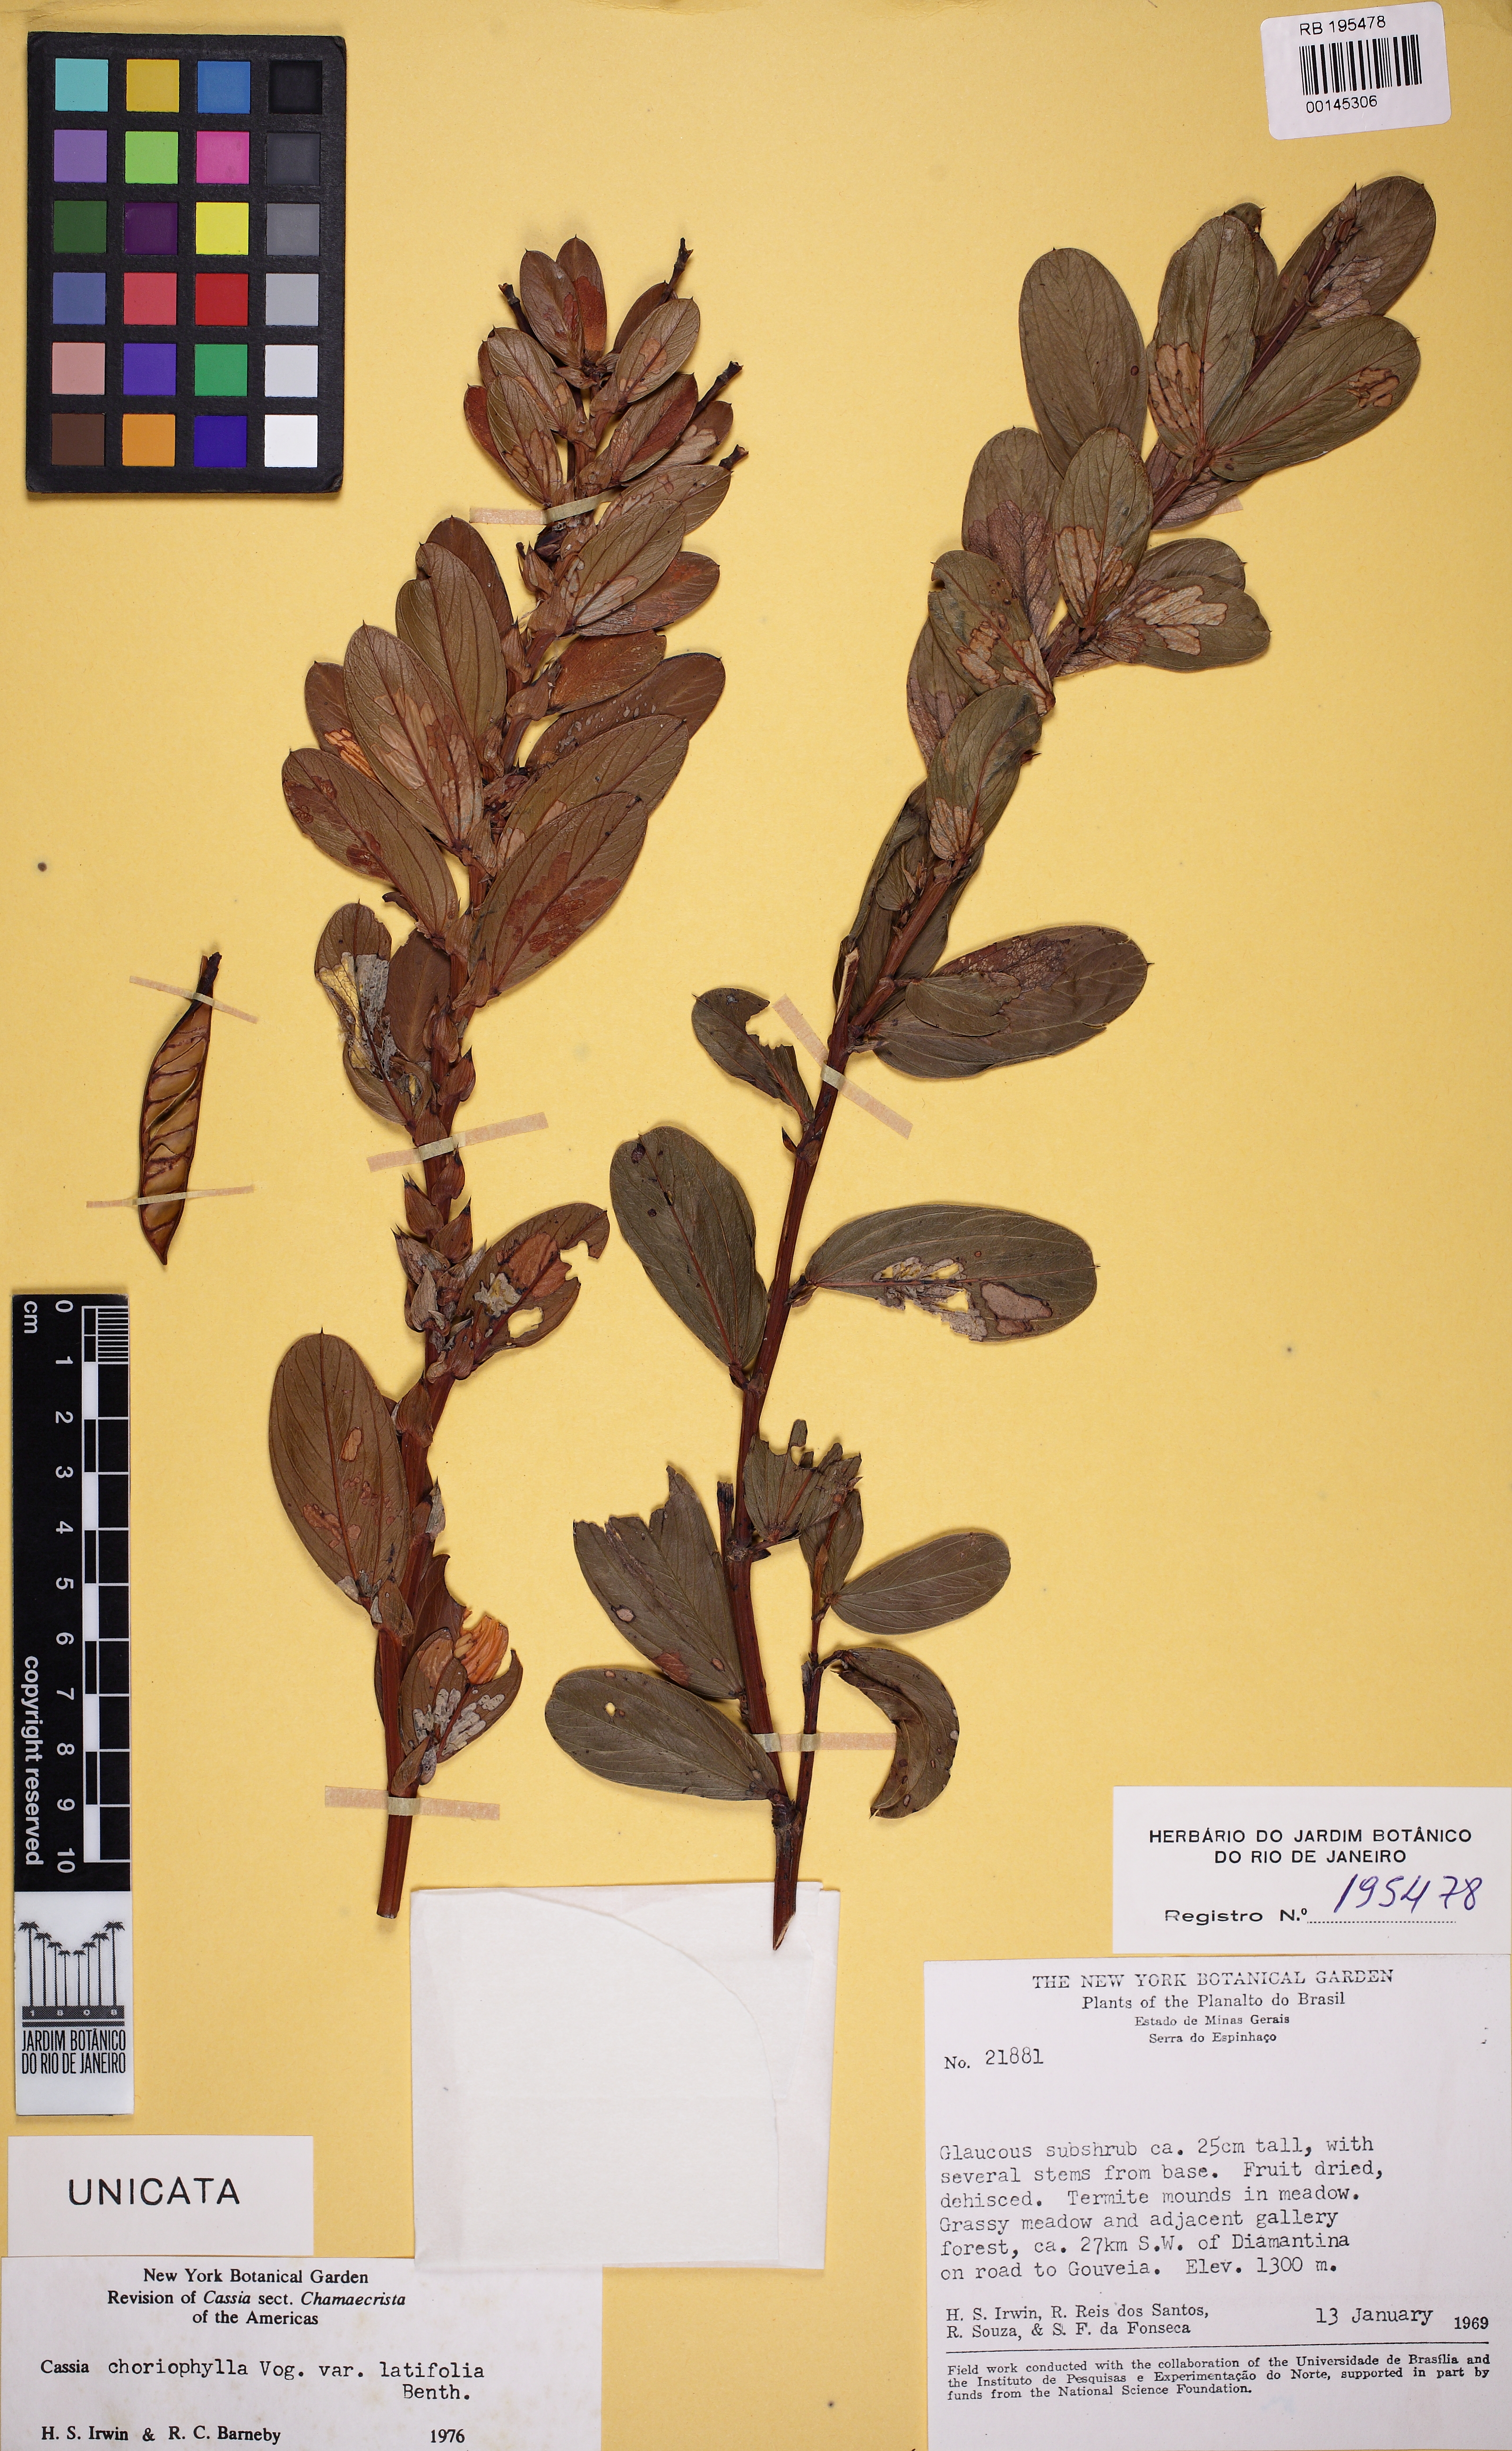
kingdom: Plantae
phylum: Tracheophyta
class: Magnoliopsida
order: Fabales
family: Fabaceae
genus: Chamaecrista
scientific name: Chamaecrista latifolia
